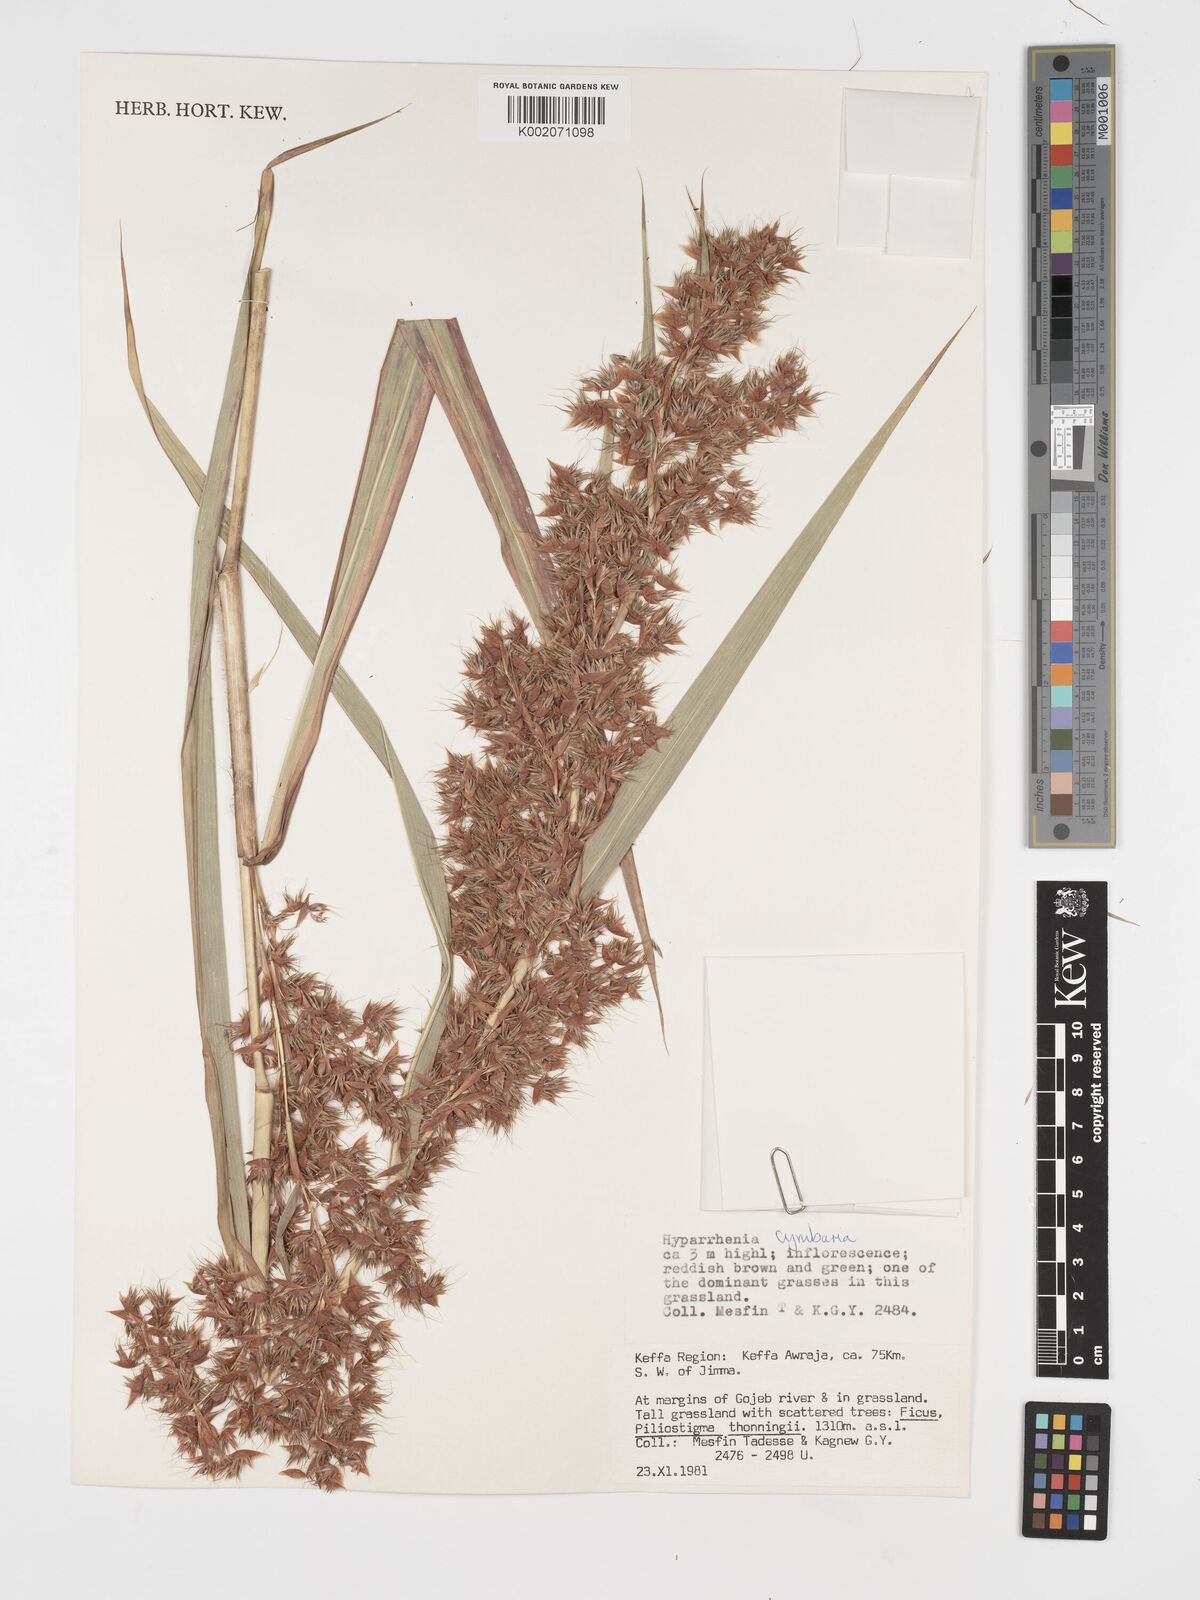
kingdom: Plantae
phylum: Tracheophyta
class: Liliopsida
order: Poales
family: Poaceae
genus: Hyparrhenia
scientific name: Hyparrhenia cymbaria
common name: Boat thatching grass
